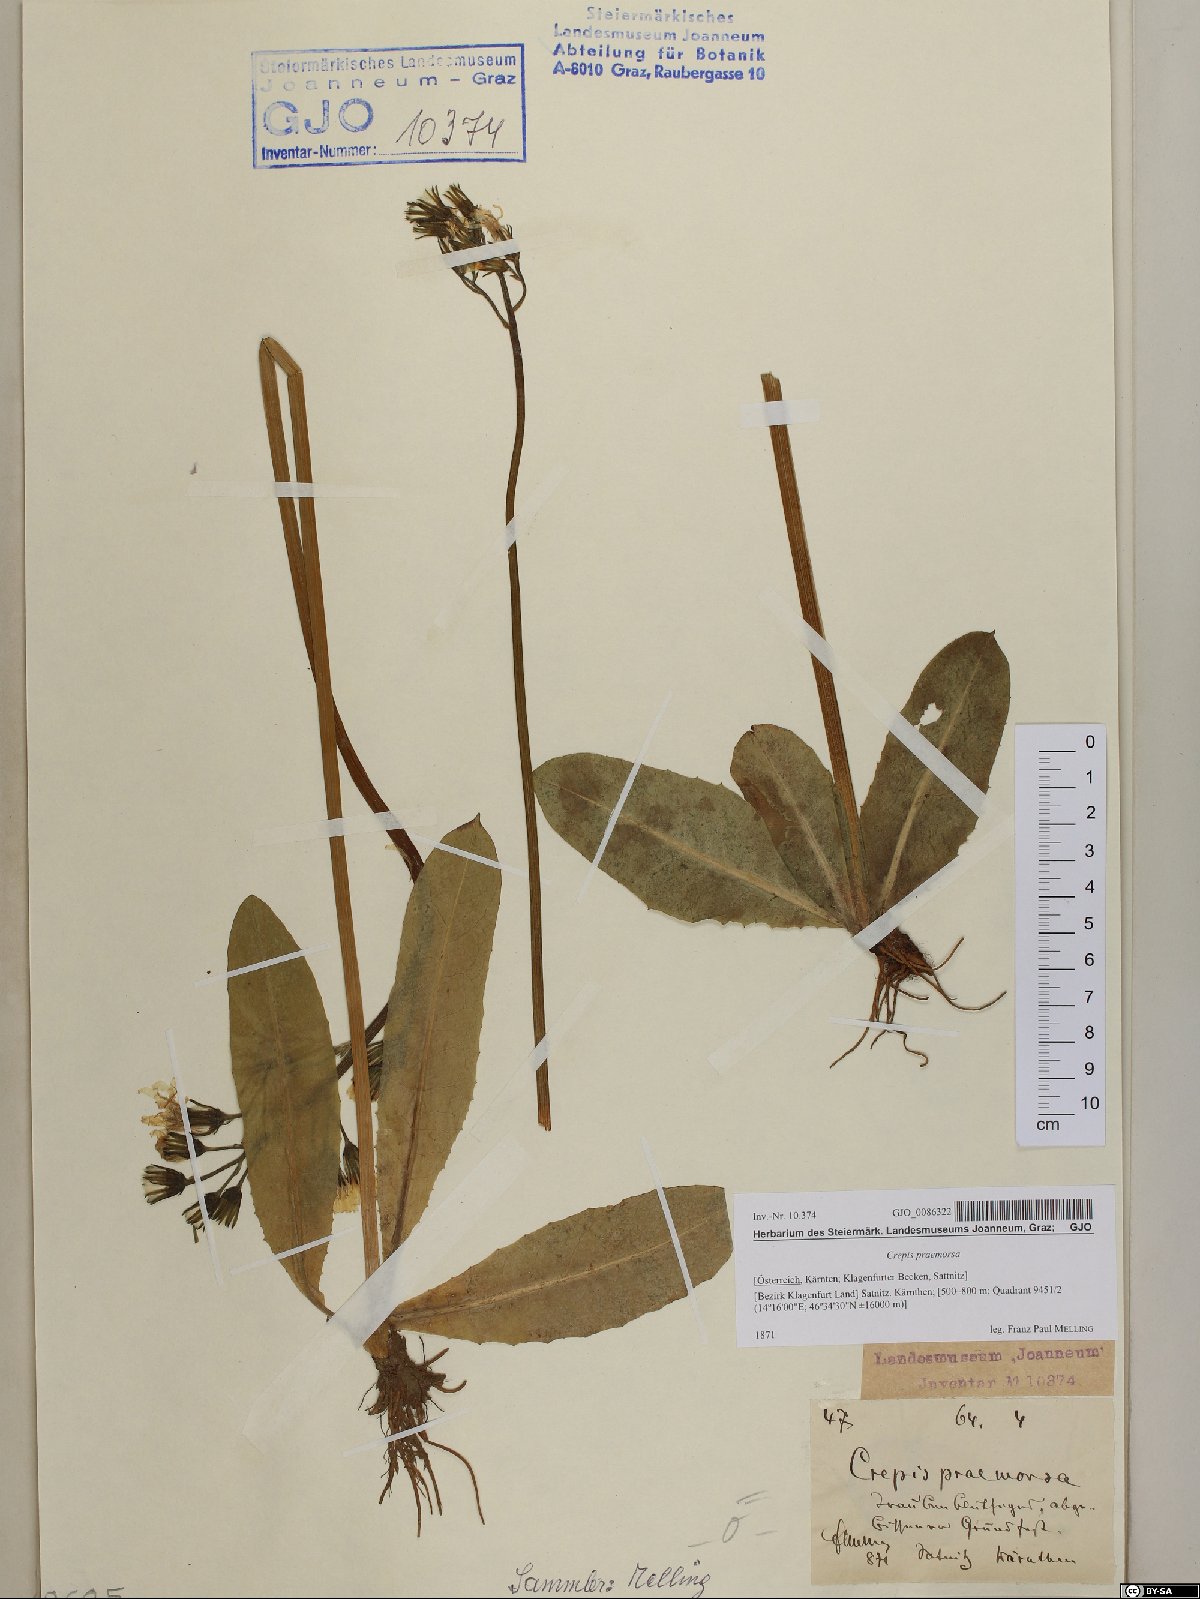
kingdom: Plantae
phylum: Tracheophyta
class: Magnoliopsida
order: Asterales
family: Asteraceae
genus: Crepis
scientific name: Crepis praemorsa
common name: Leafless hawk's-beard
